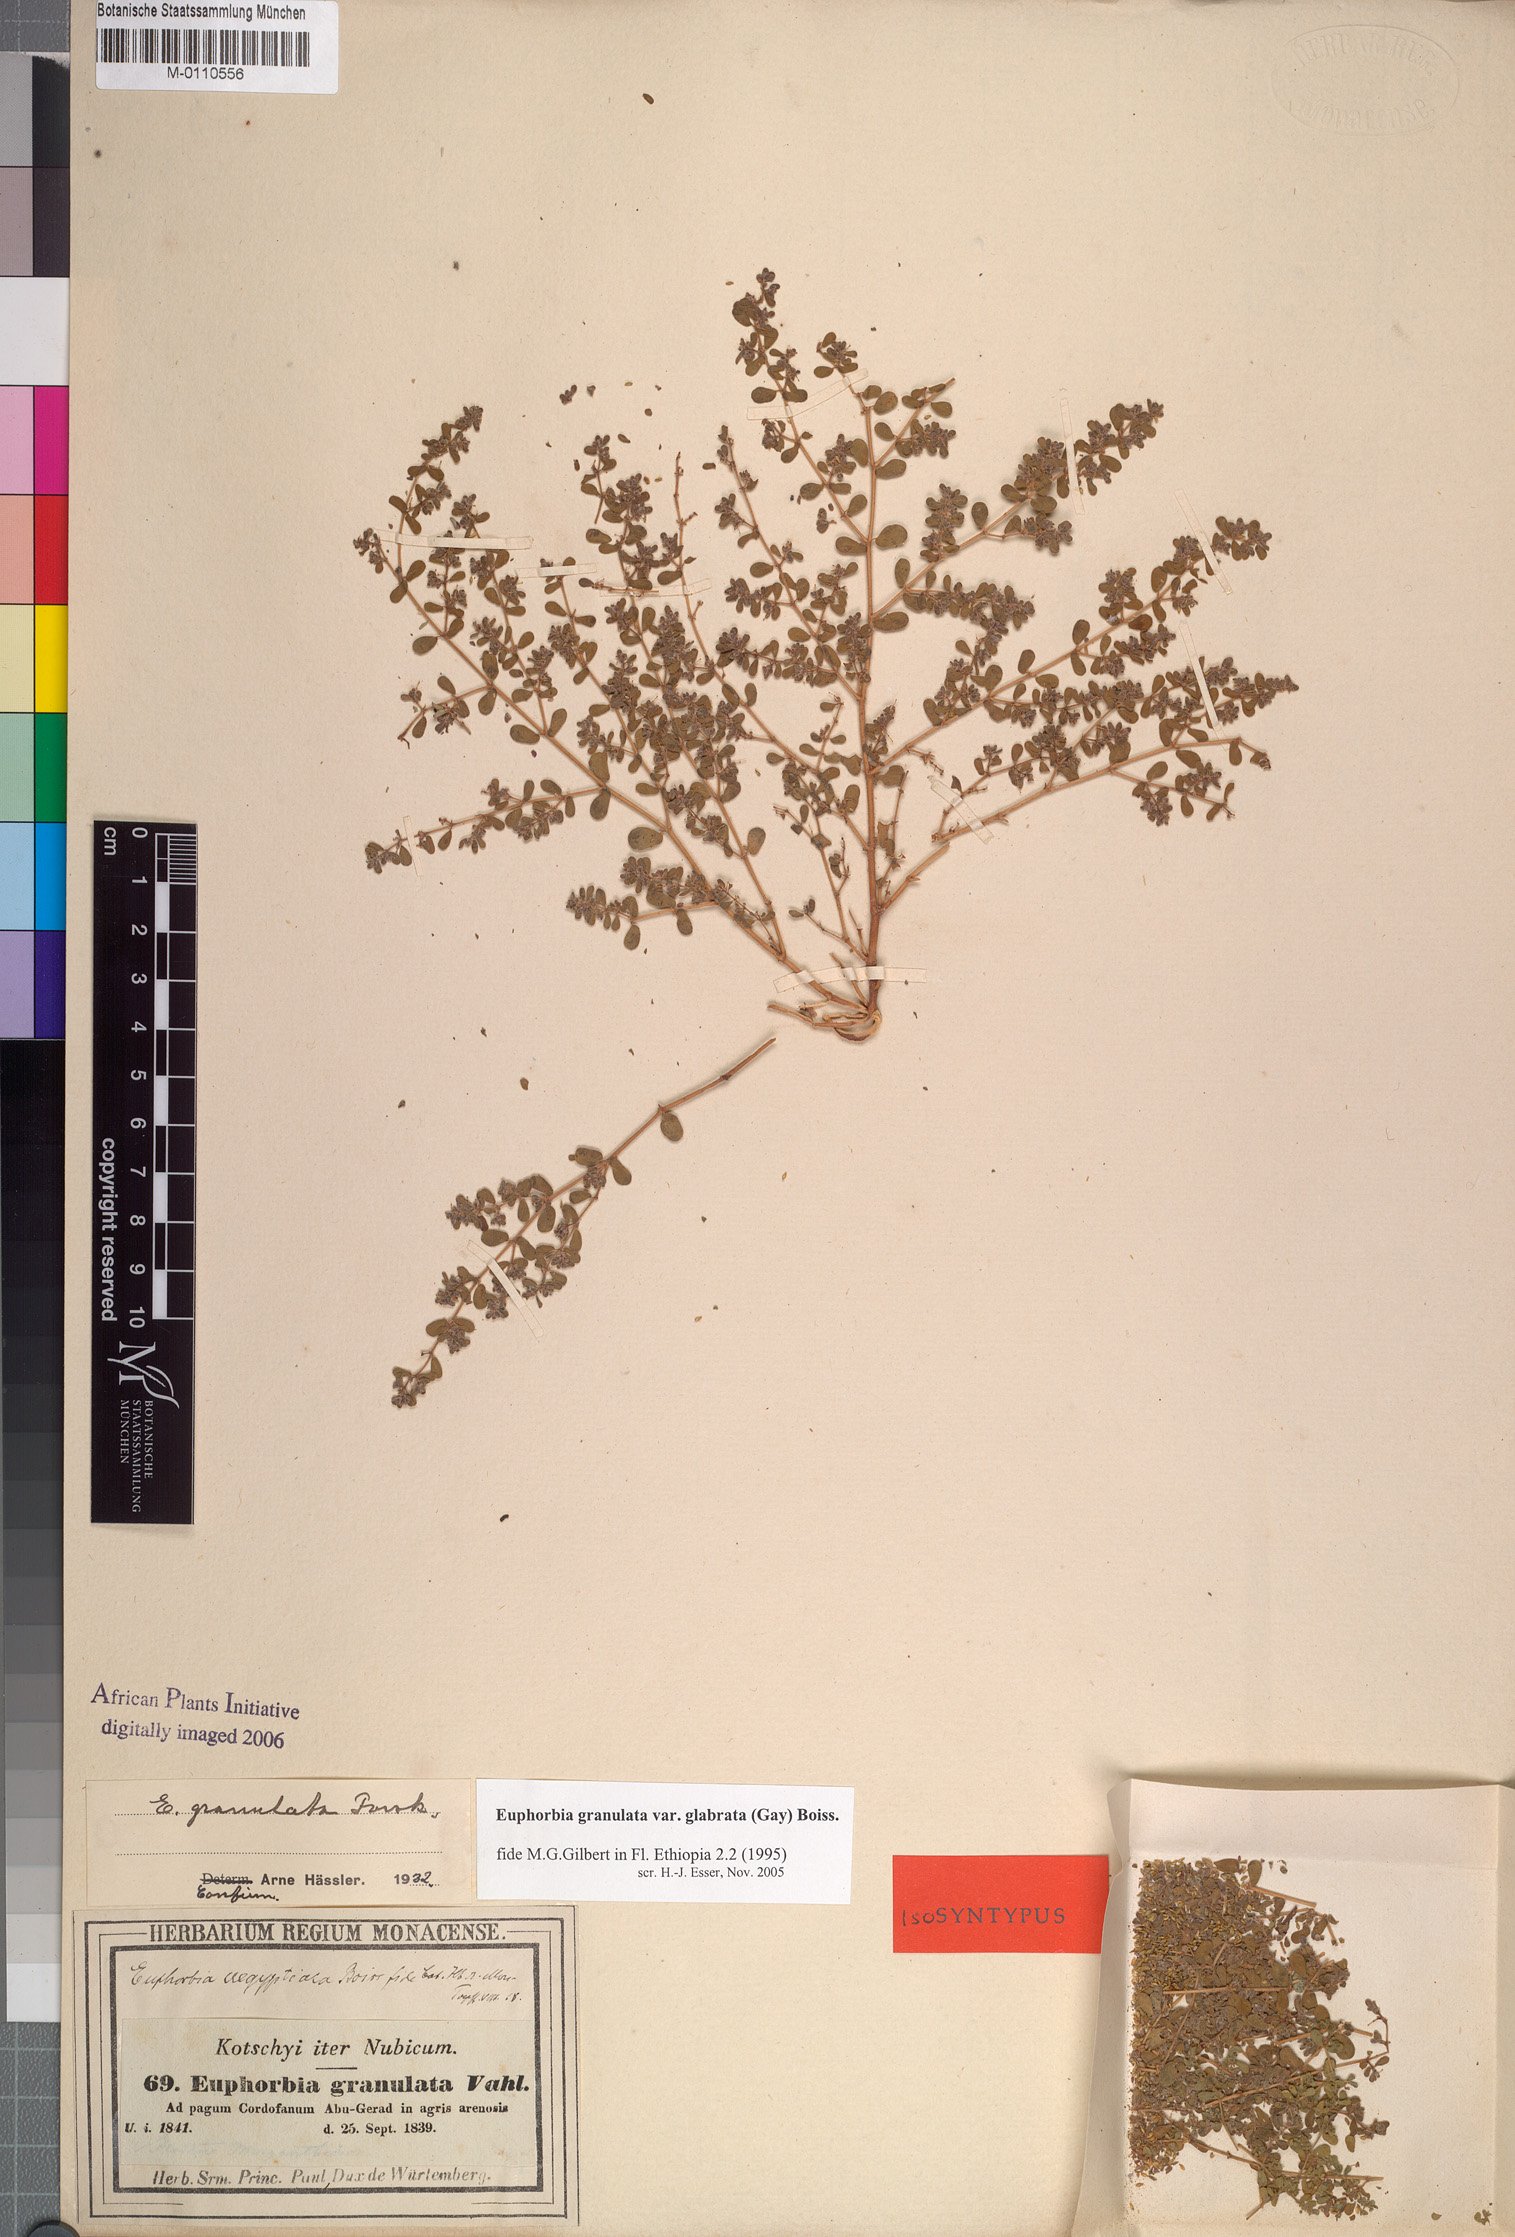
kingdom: Plantae
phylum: Tracheophyta
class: Magnoliopsida
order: Malpighiales
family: Euphorbiaceae
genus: Euphorbia
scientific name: Euphorbia granulata
